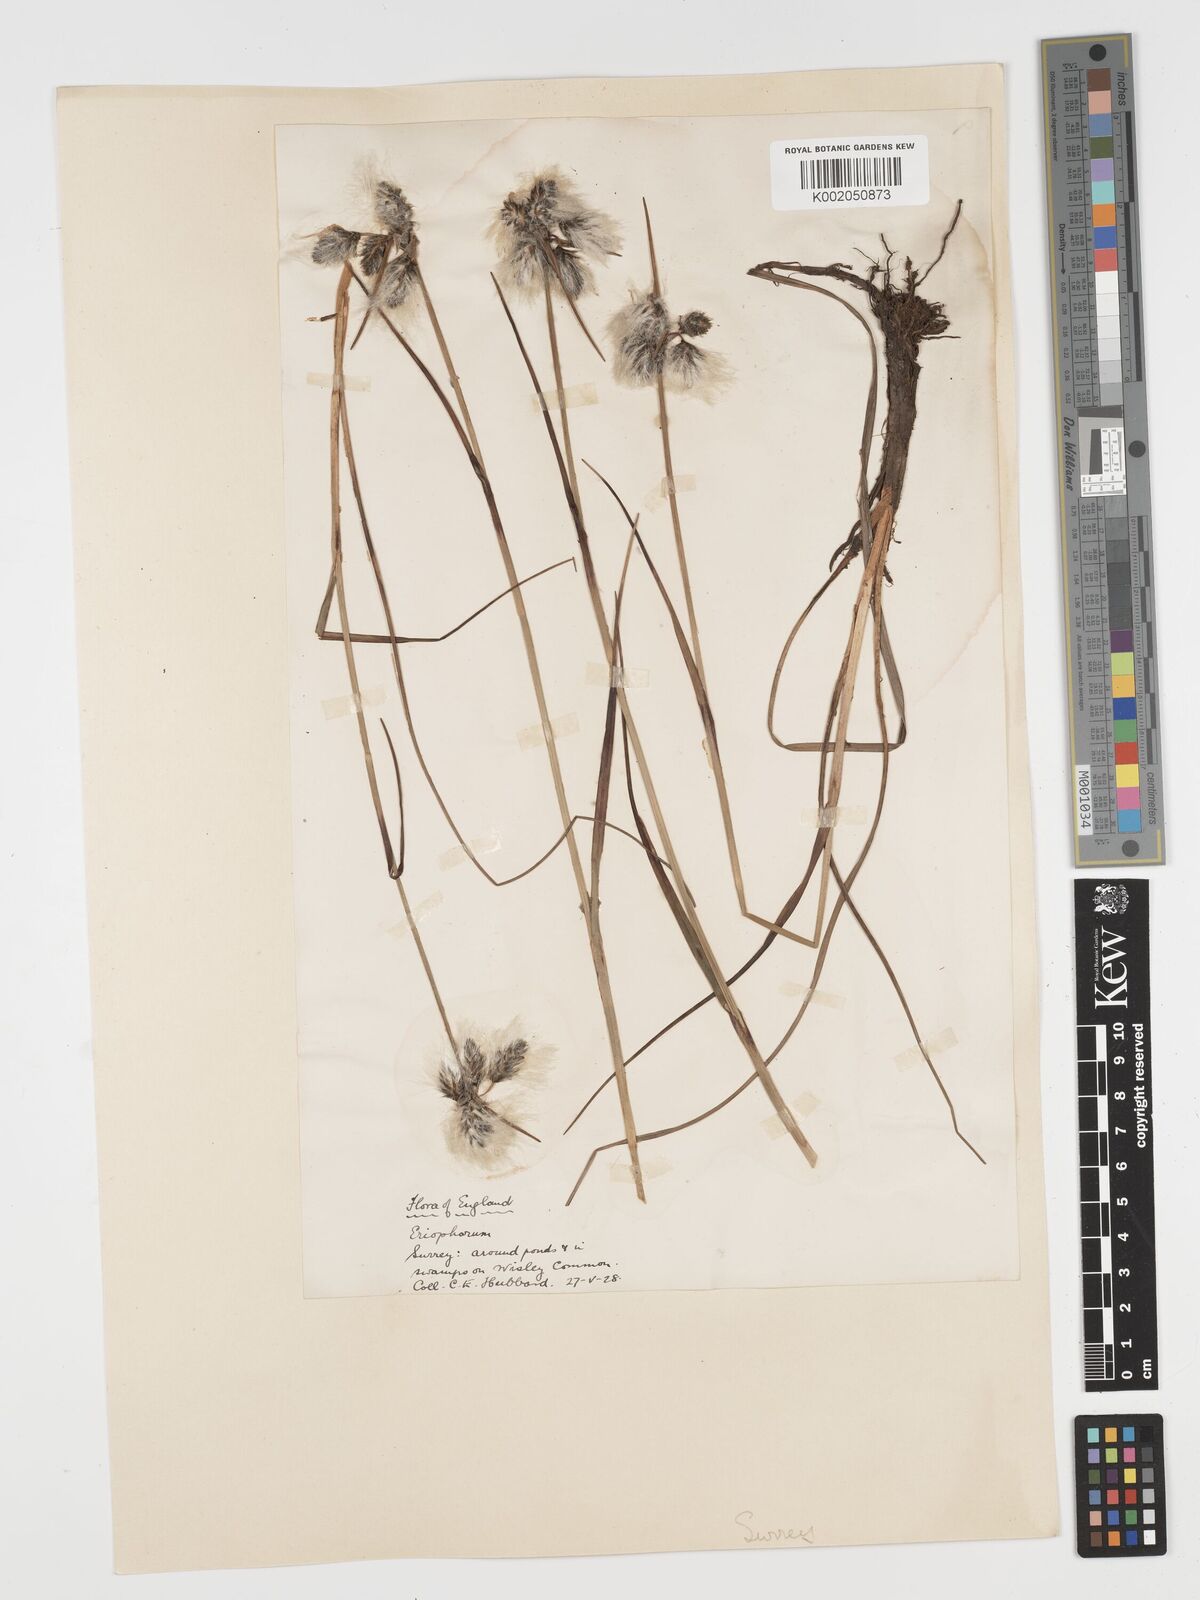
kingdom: Plantae
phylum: Tracheophyta
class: Liliopsida
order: Poales
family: Cyperaceae
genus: Eriophorum
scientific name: Eriophorum angustifolium
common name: Common cottongrass
